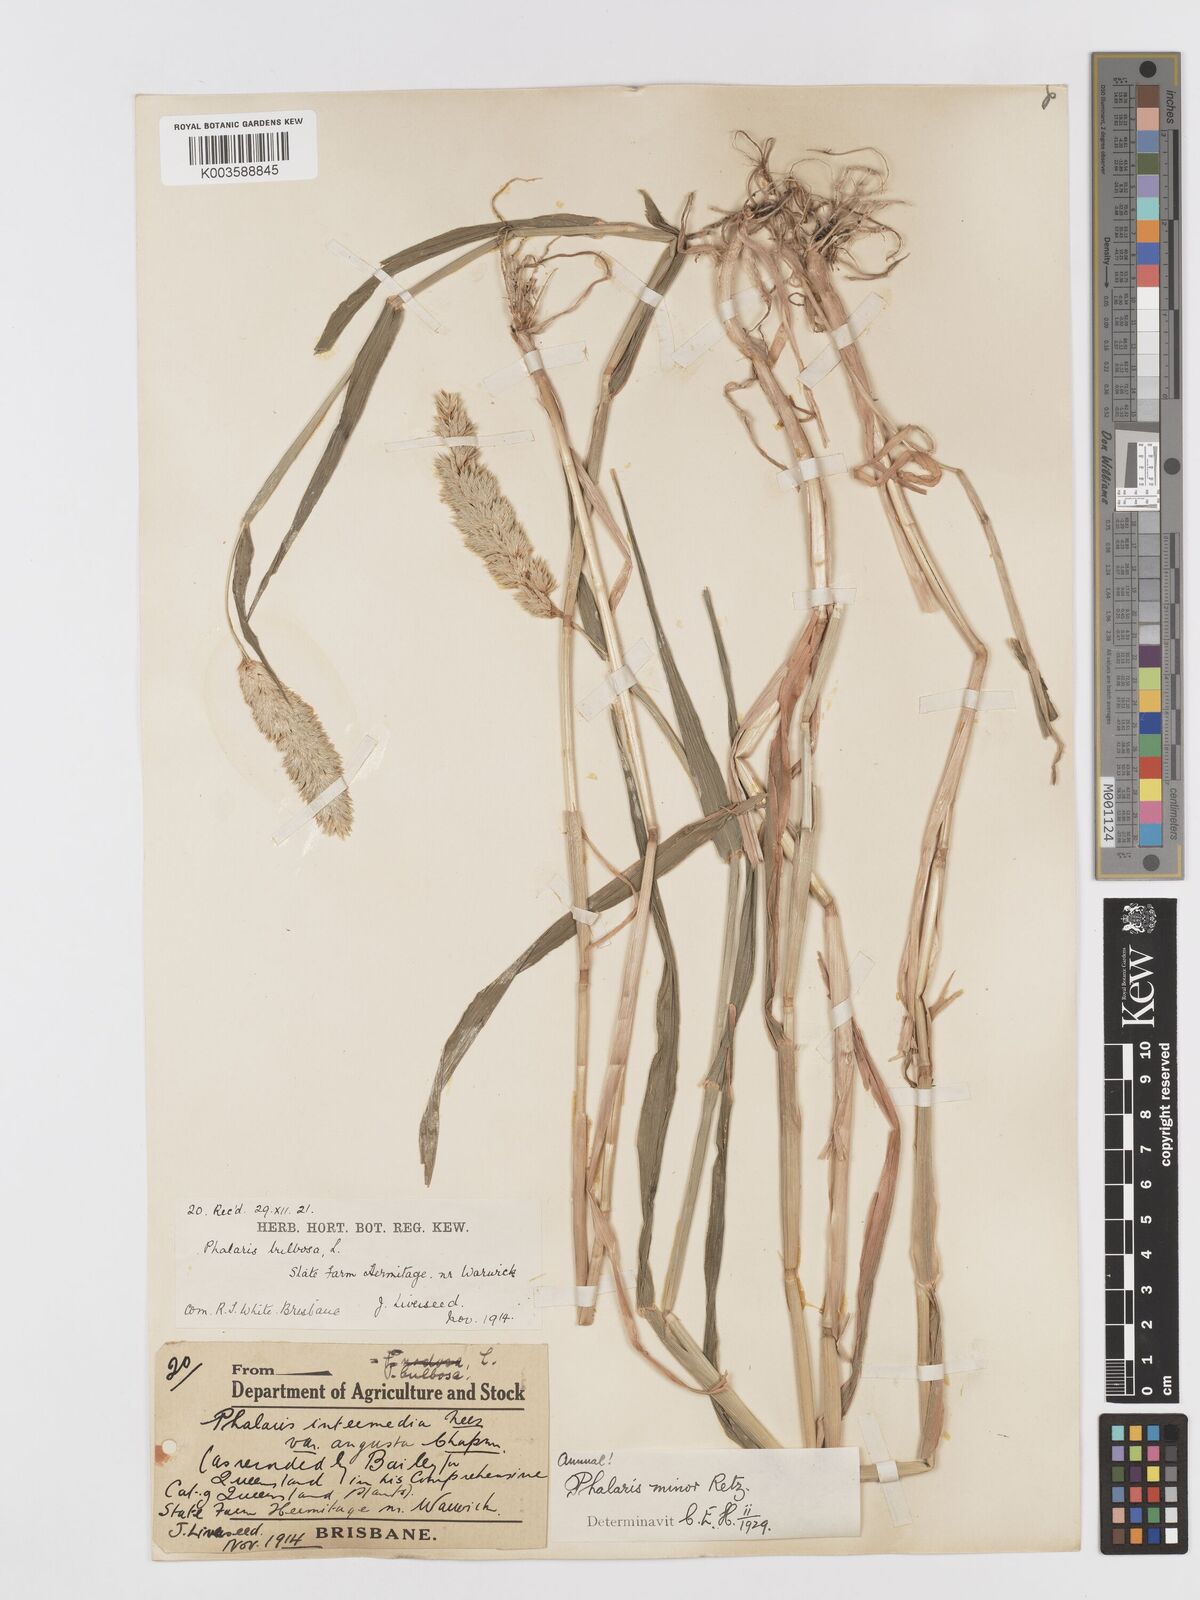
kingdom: Plantae
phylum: Tracheophyta
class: Liliopsida
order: Poales
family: Poaceae
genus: Phalaris
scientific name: Phalaris minor
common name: Littleseed canarygrass
